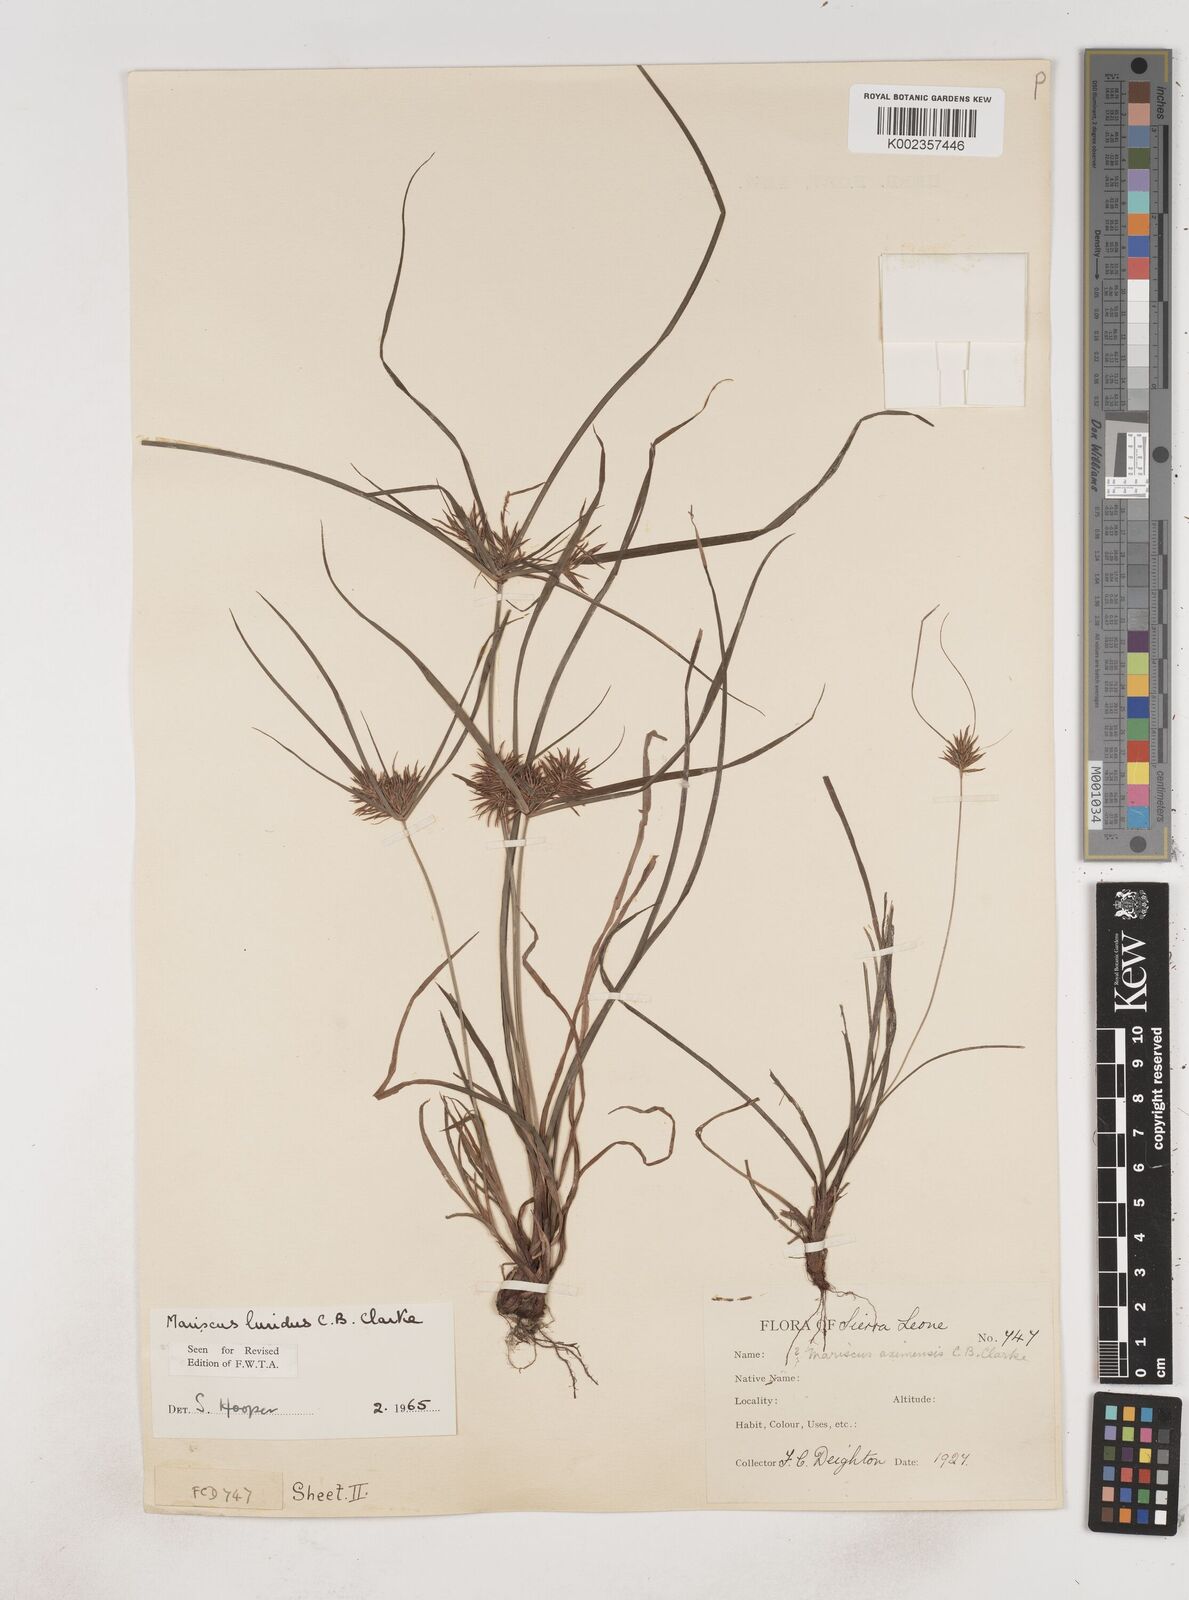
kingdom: Plantae
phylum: Tracheophyta
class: Liliopsida
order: Poales
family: Cyperaceae
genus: Cyperus
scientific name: Cyperus tenuis
